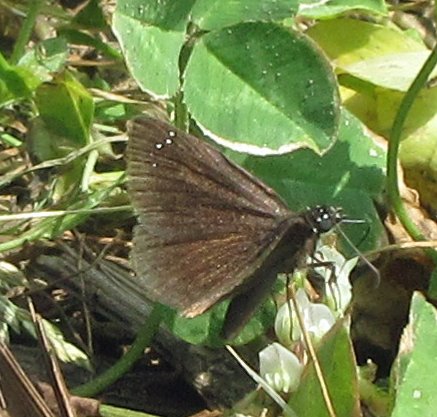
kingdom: Animalia
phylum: Arthropoda
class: Insecta
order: Lepidoptera
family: Hesperiidae
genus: Pholisora
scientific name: Pholisora catullus
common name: Common Sootywing
